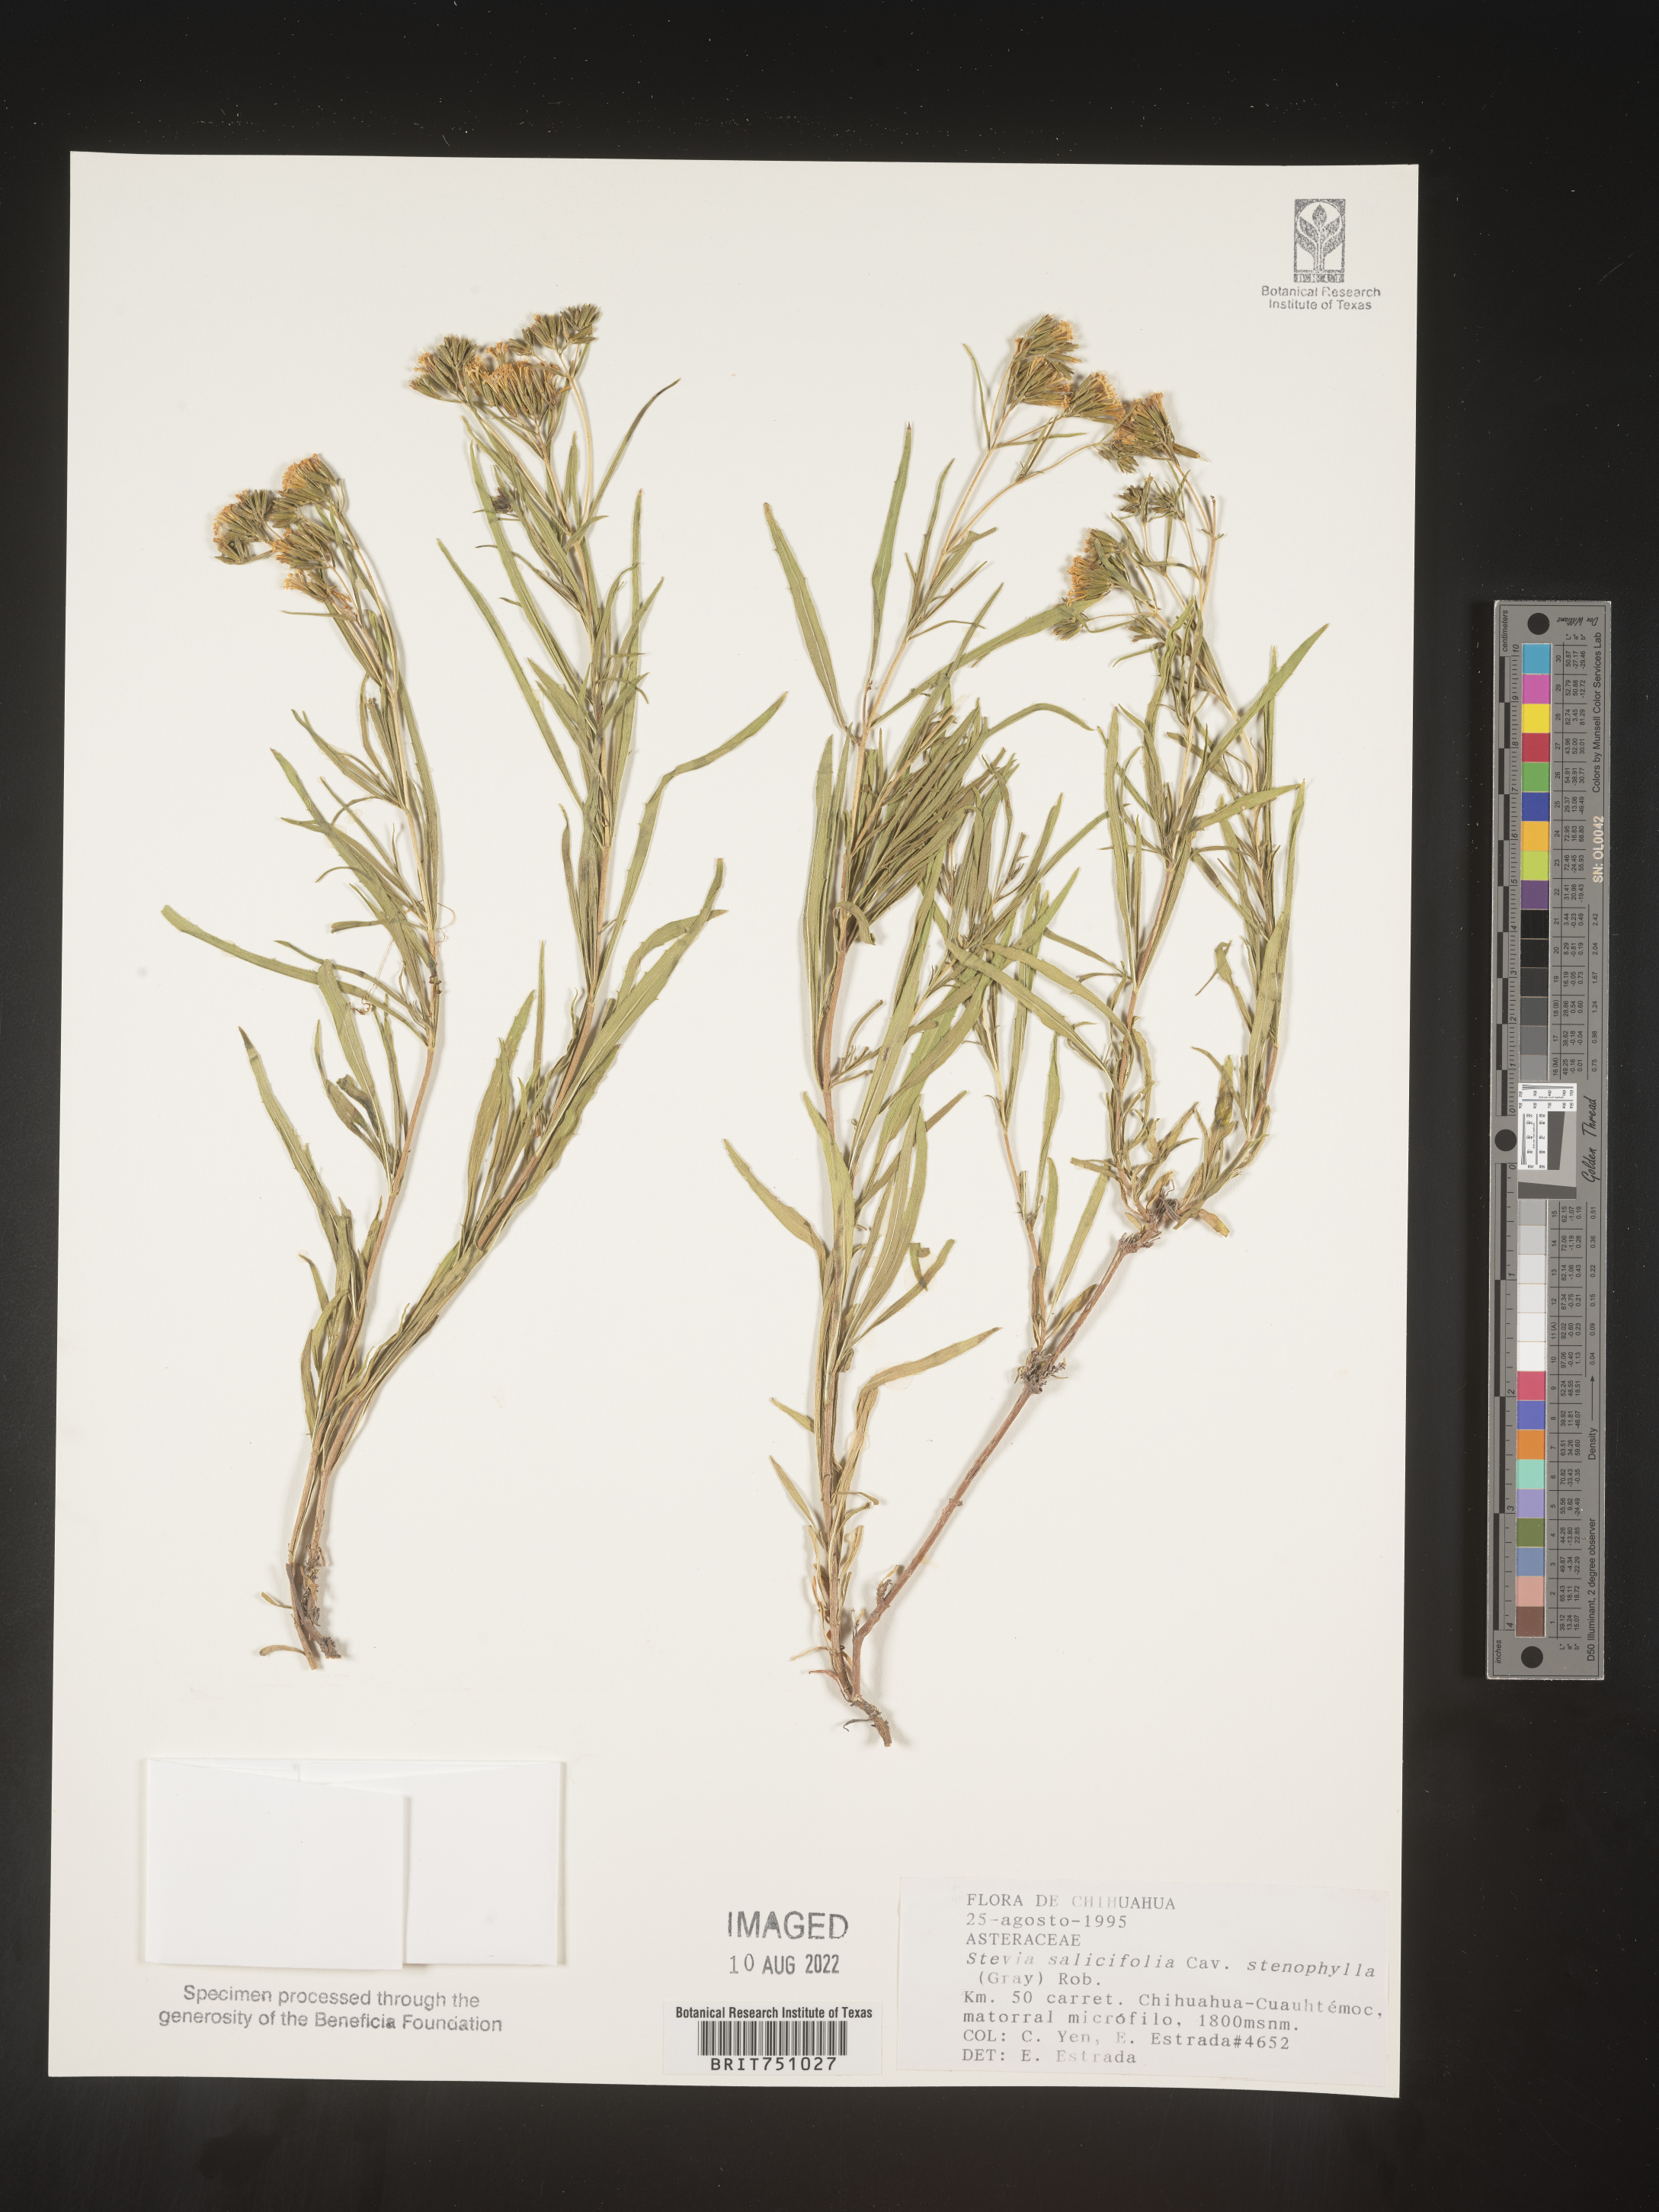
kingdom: Plantae
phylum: Tracheophyta
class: Magnoliopsida
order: Asterales
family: Asteraceae
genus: Stevia
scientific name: Stevia salicifolia
